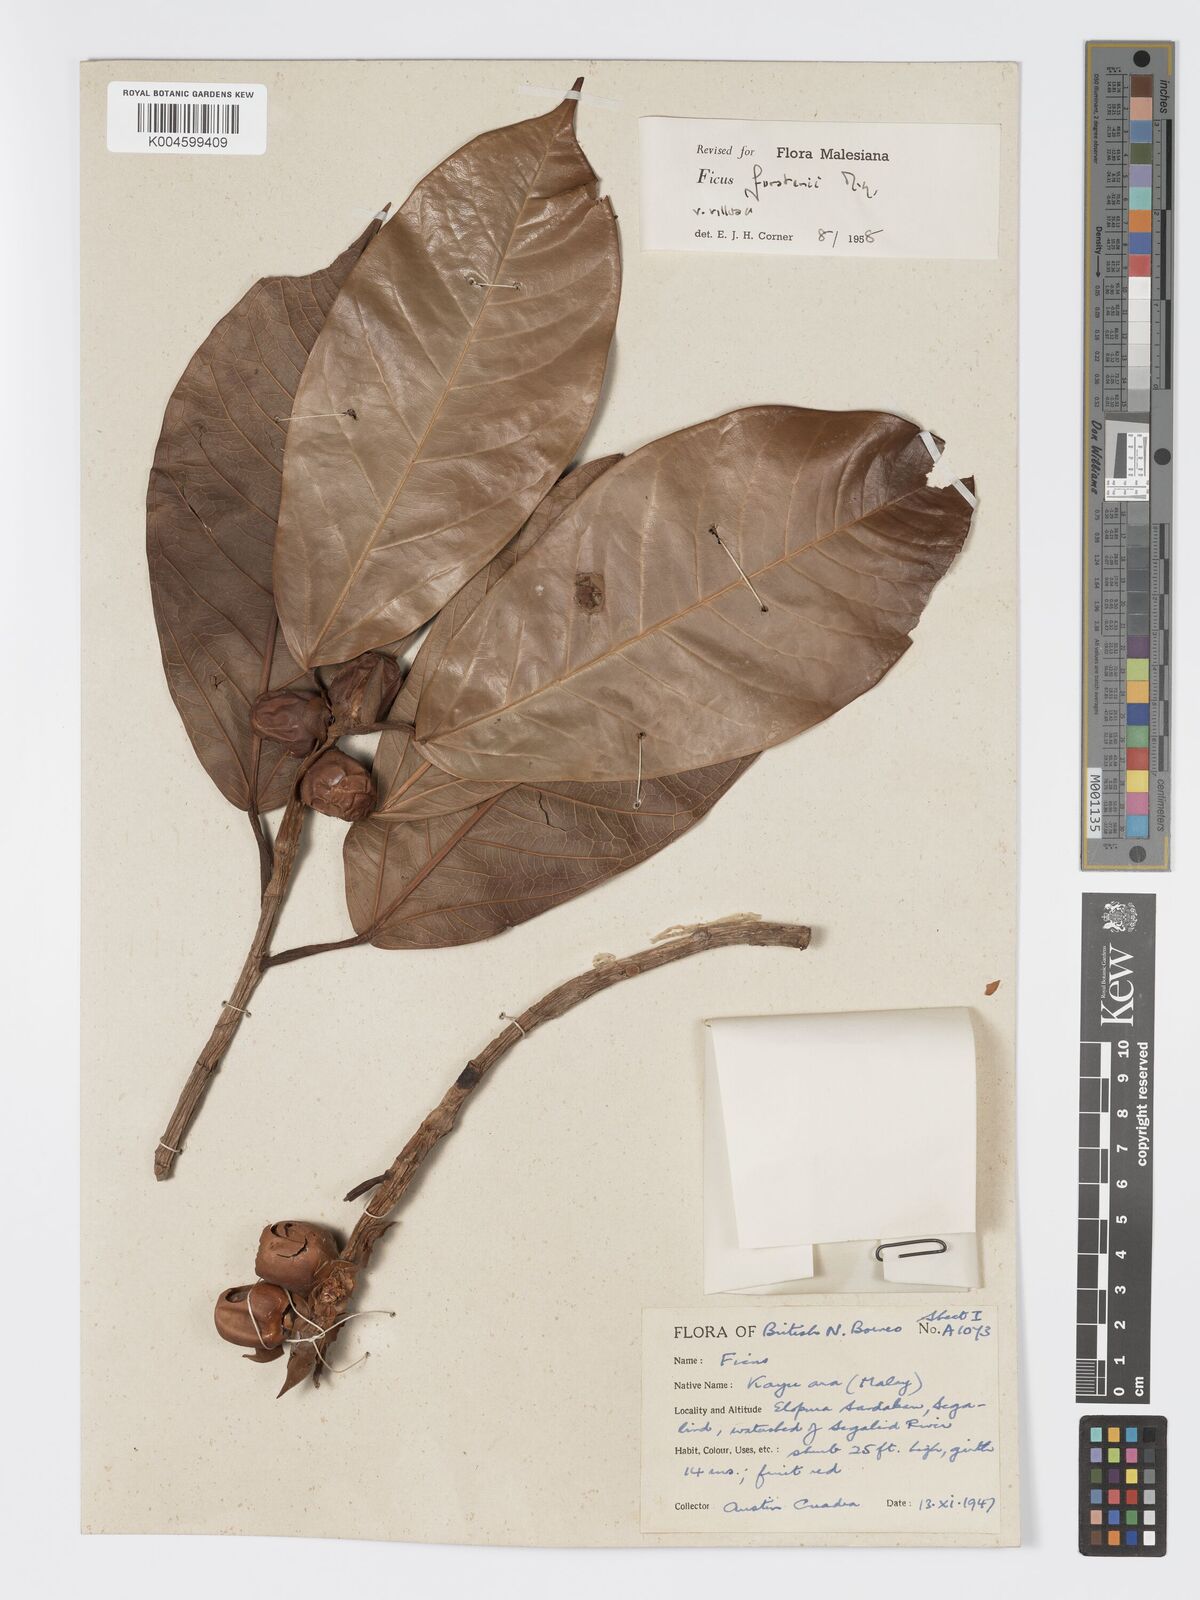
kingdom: Plantae
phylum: Tracheophyta
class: Magnoliopsida
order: Rosales
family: Moraceae
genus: Ficus
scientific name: Ficus forstenii
